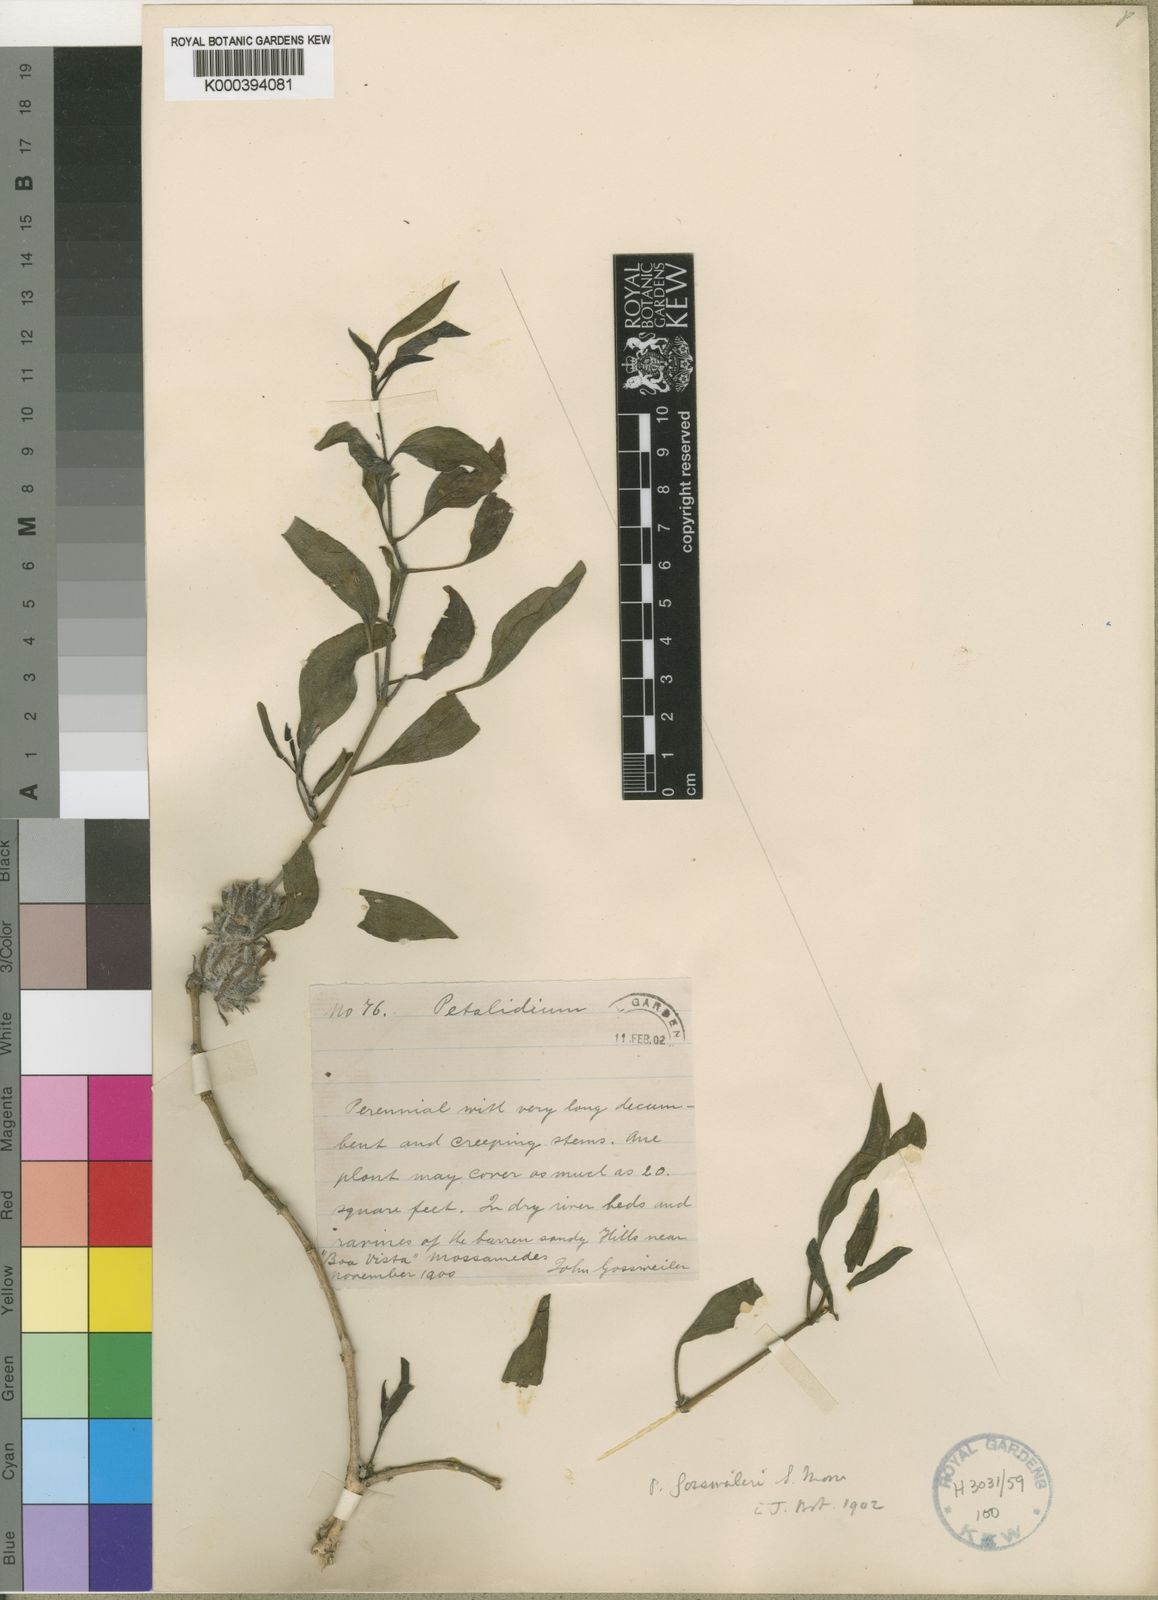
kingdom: Plantae
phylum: Tracheophyta
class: Magnoliopsida
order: Lamiales
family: Acanthaceae
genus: Petalidium
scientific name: Petalidium gossweileri
